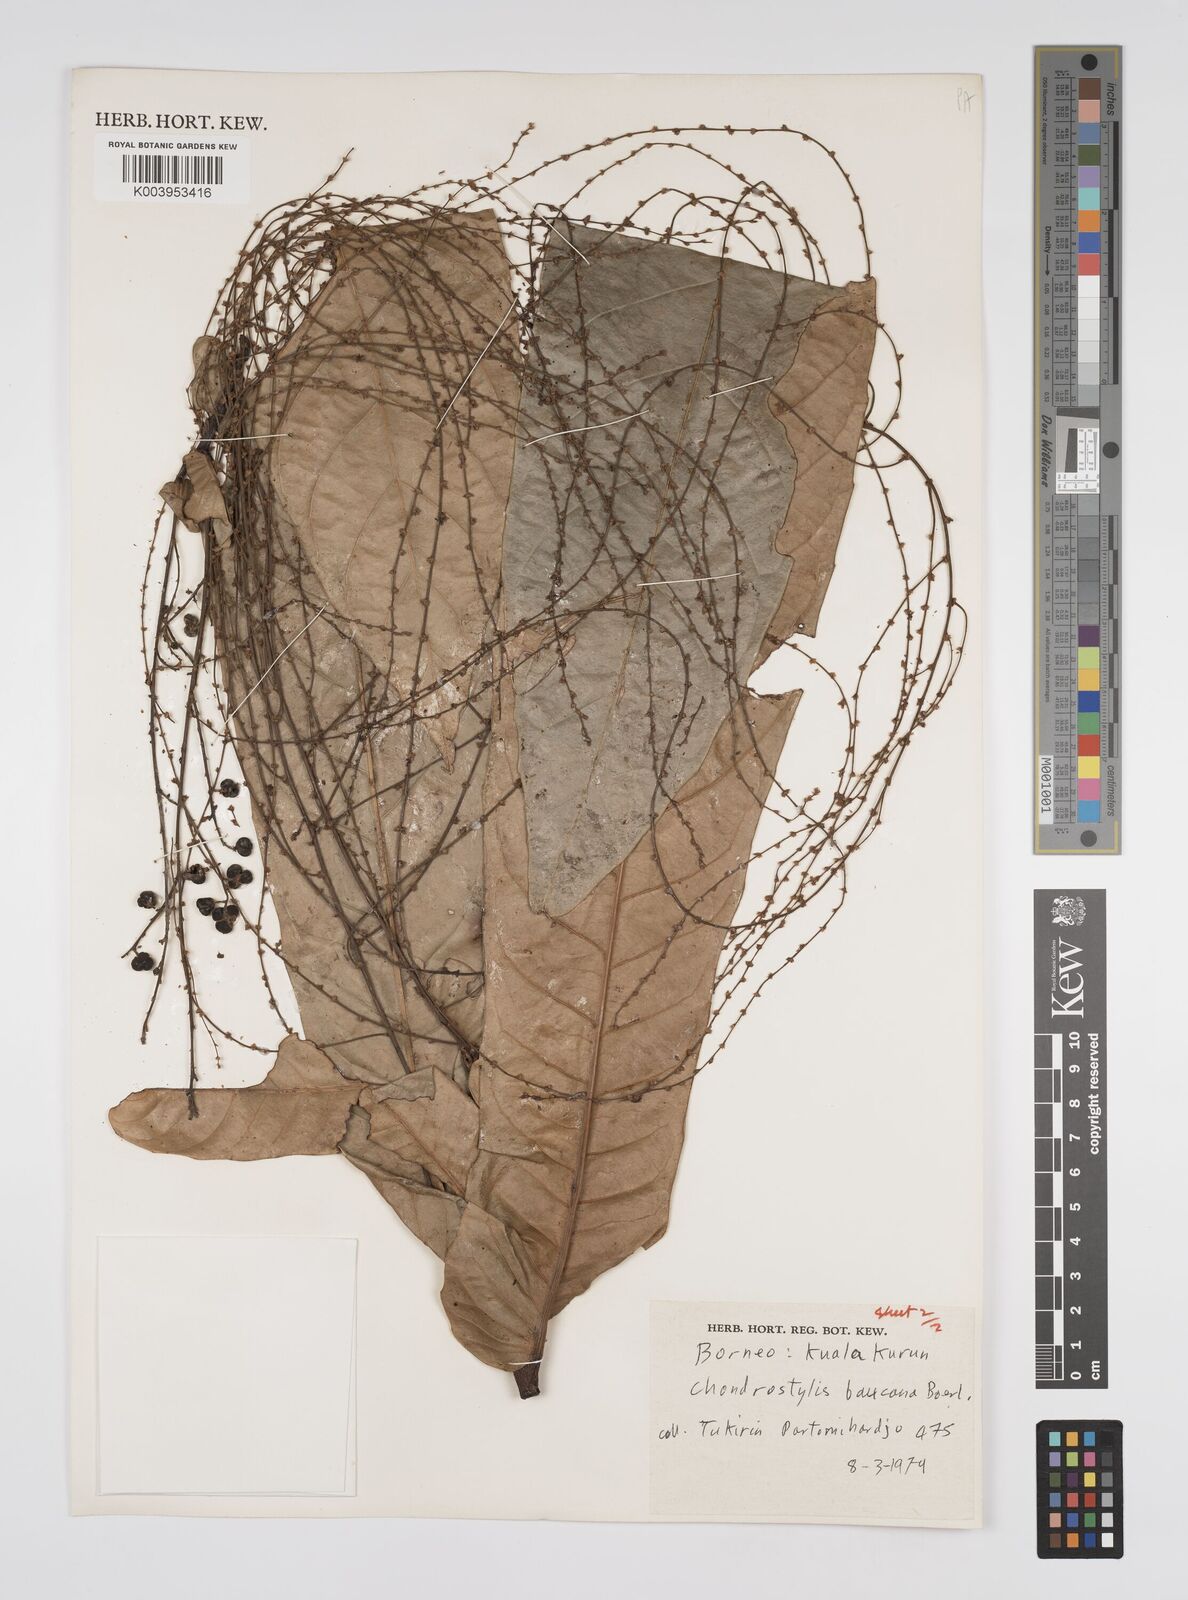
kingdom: Plantae
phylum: Tracheophyta
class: Magnoliopsida
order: Malpighiales
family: Euphorbiaceae
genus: Chondrostylis
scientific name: Chondrostylis bancana
